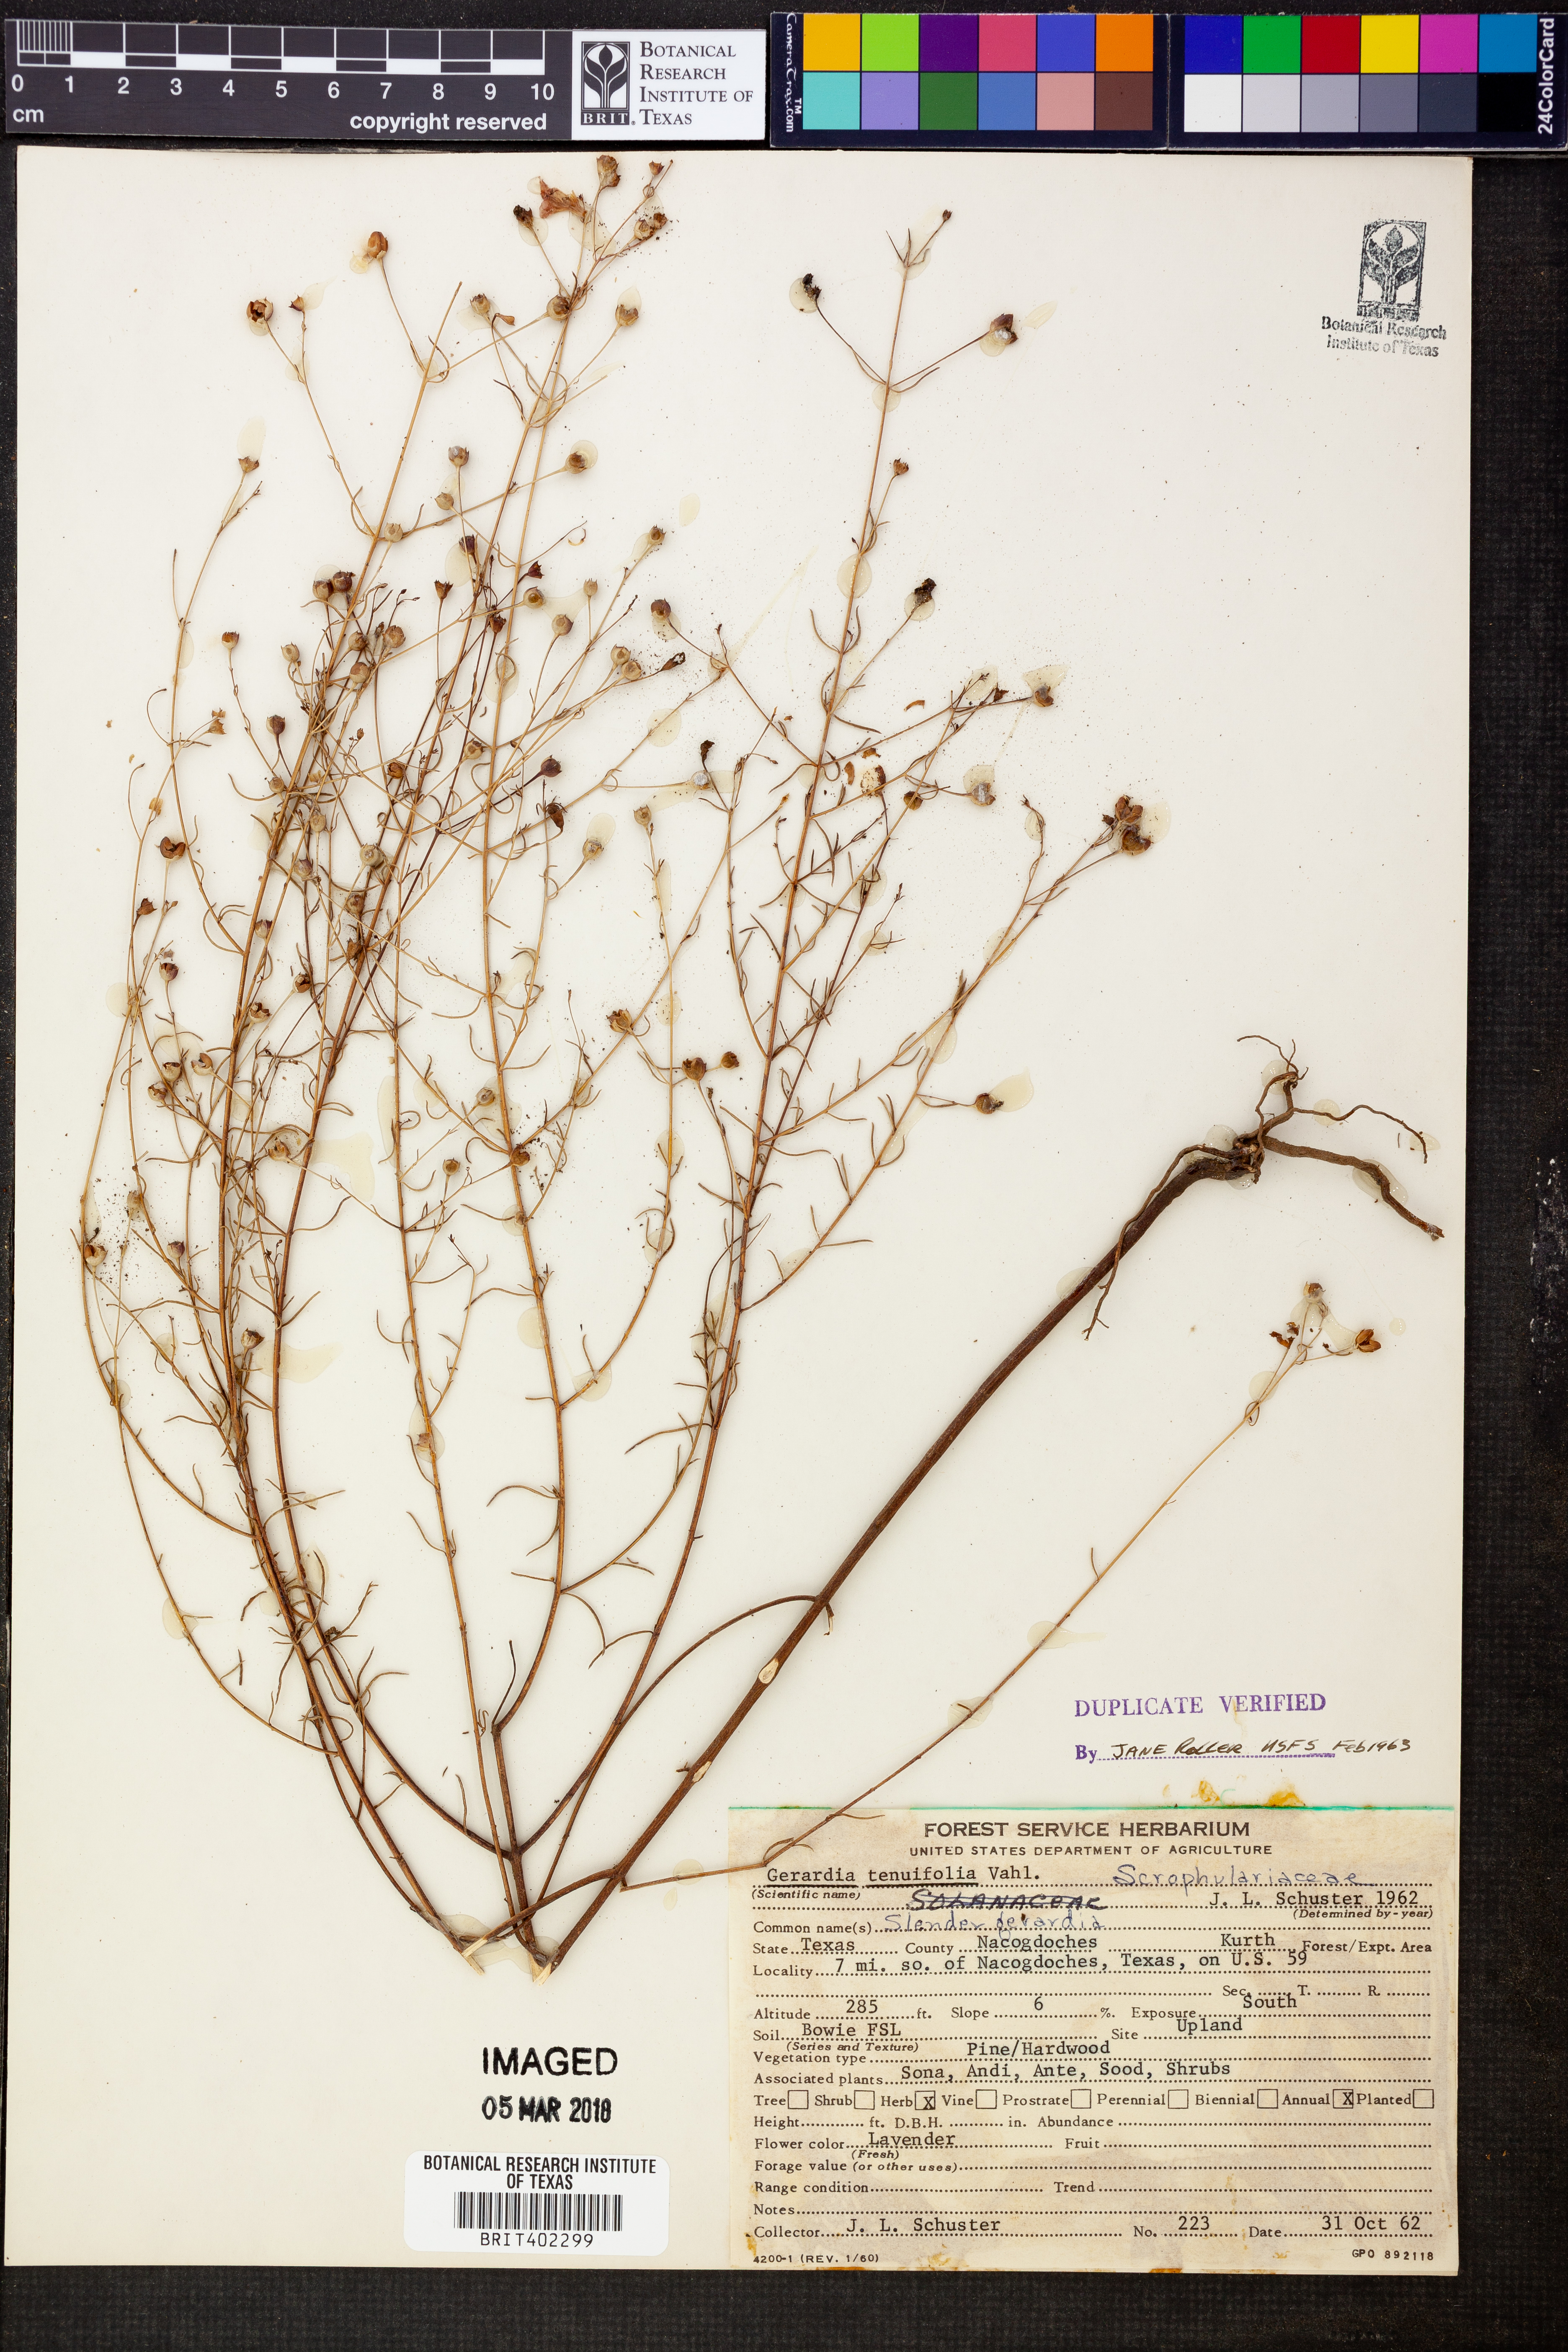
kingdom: Plantae
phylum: Tracheophyta
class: Magnoliopsida
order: Lamiales
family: Orobanchaceae
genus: Agalinis
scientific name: Agalinis tenuifolia
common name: Slender agalinis
